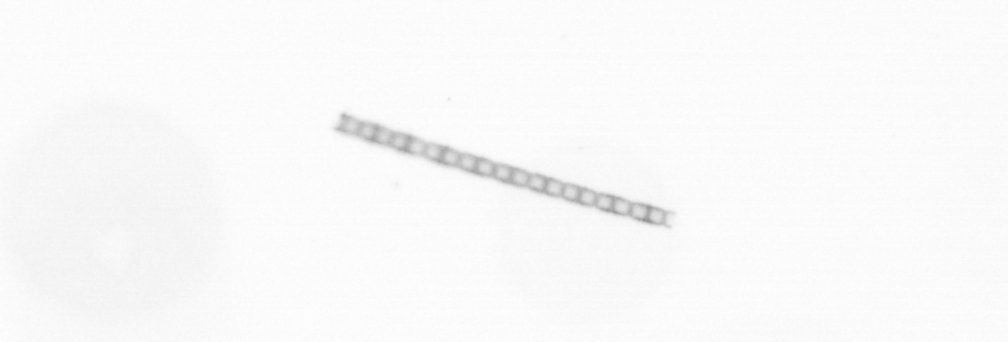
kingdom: Chromista
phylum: Ochrophyta
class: Bacillariophyceae
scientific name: Bacillariophyceae
